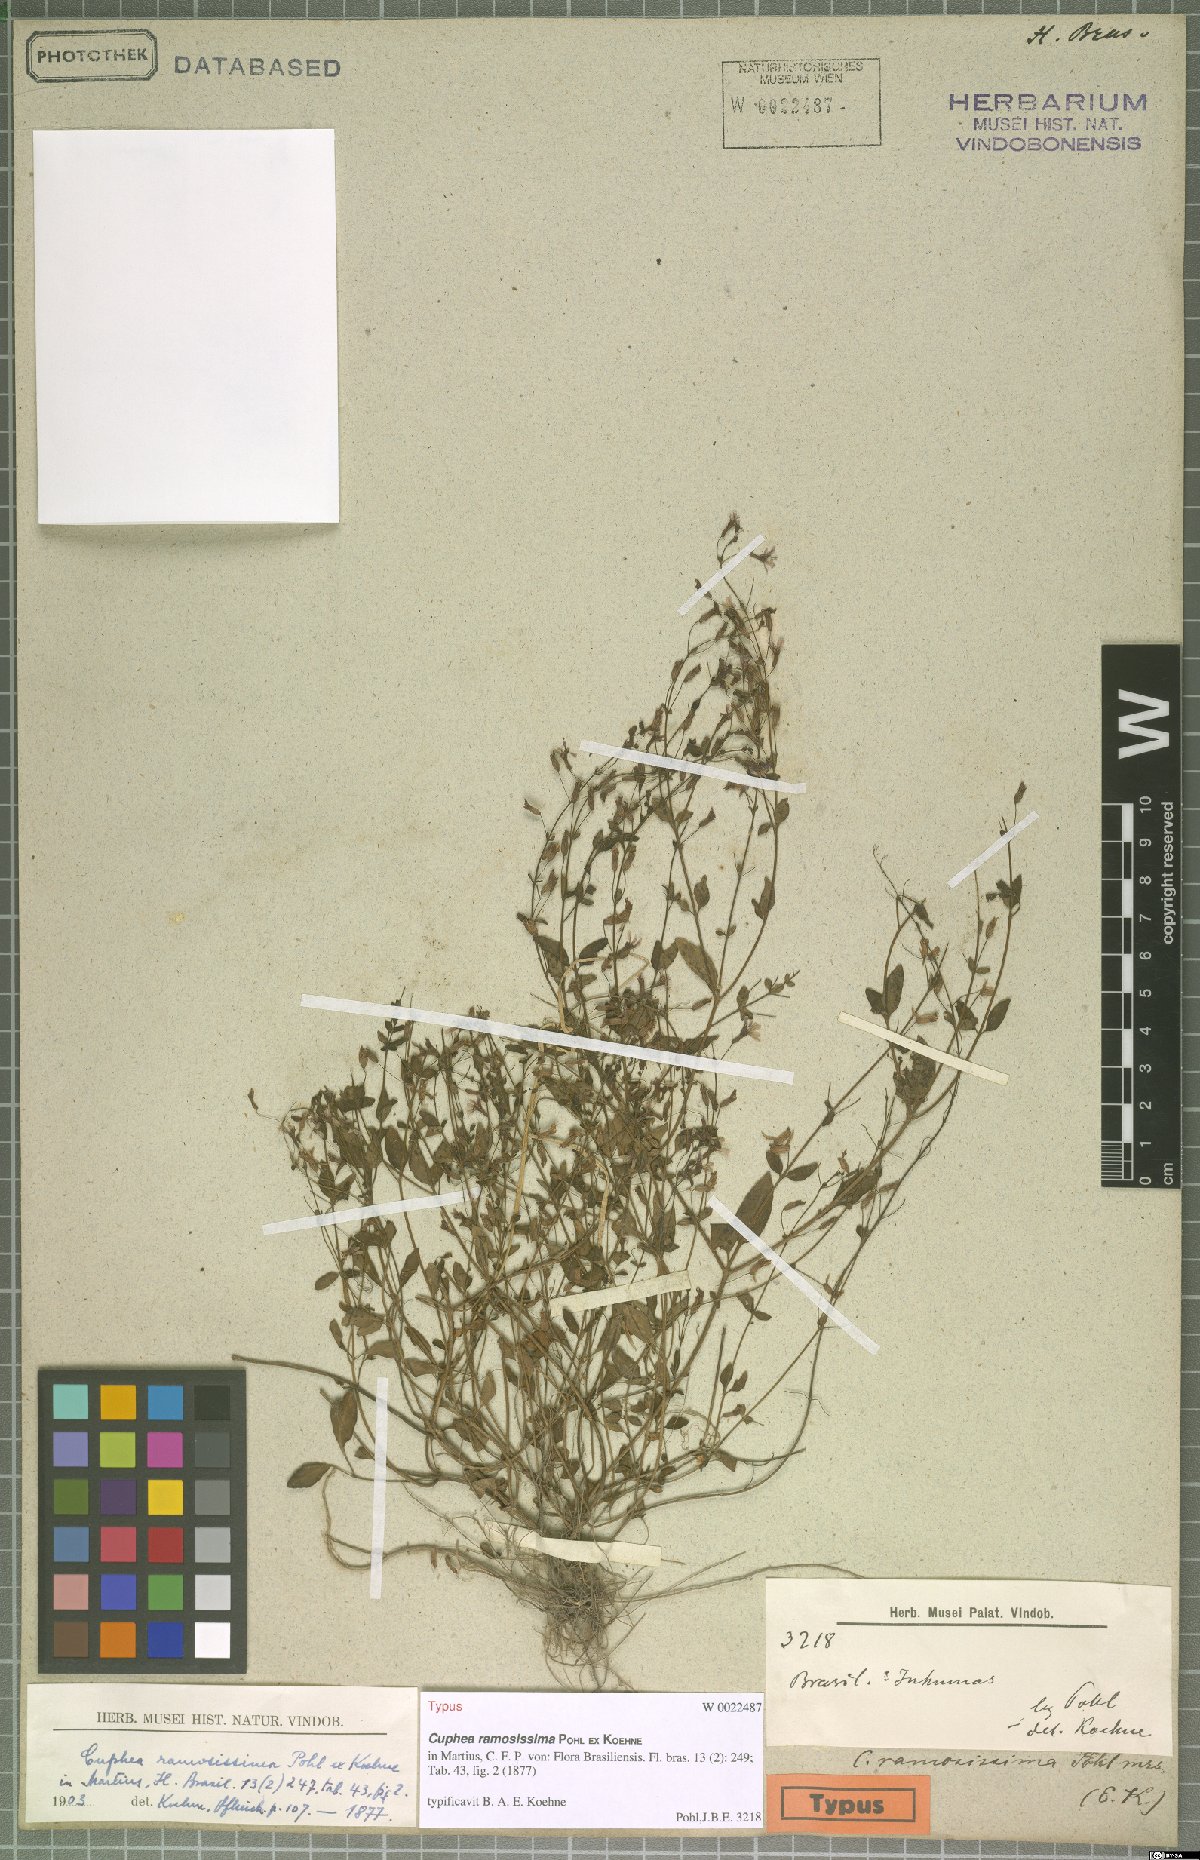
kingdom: Plantae
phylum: Tracheophyta
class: Magnoliopsida
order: Myrtales
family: Lythraceae
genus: Cuphea
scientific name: Cuphea ramosissima
